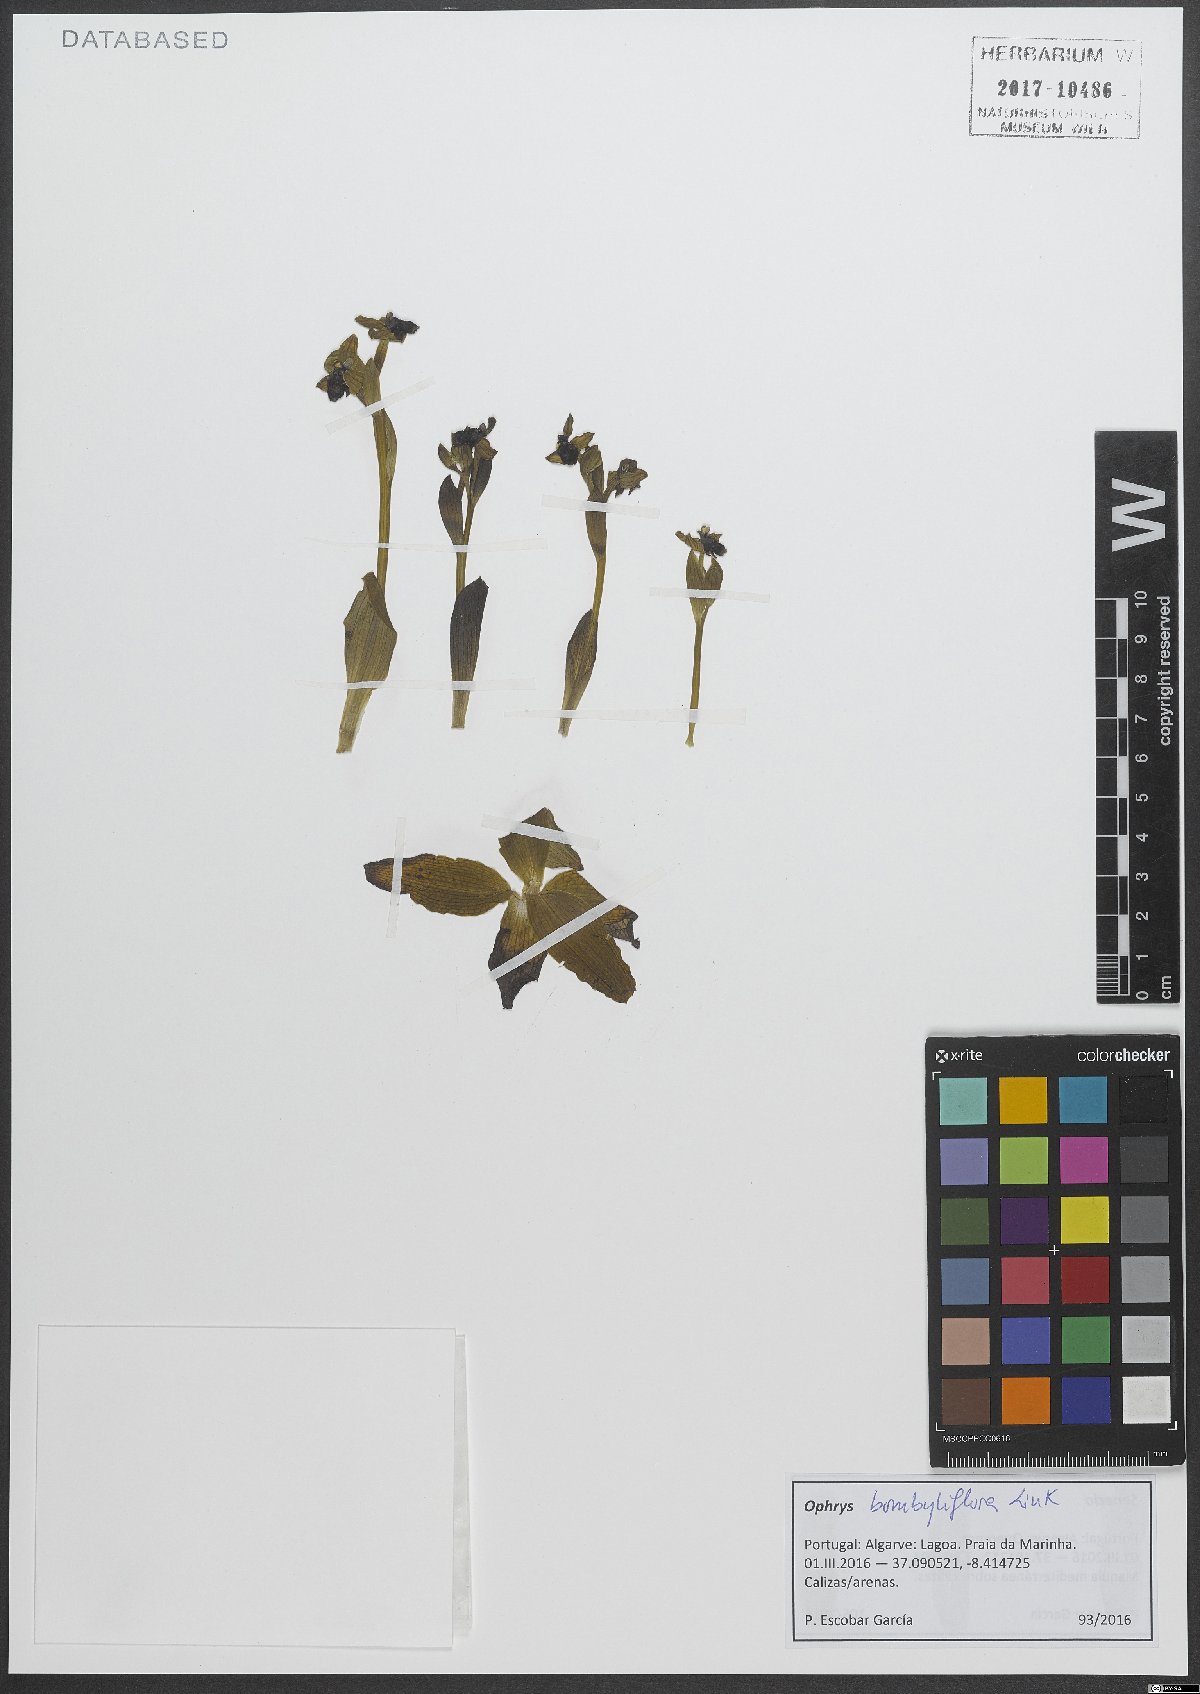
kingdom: Plantae
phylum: Tracheophyta
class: Liliopsida
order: Asparagales
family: Orchidaceae
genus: Ophrys
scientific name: Ophrys bombyliflora
